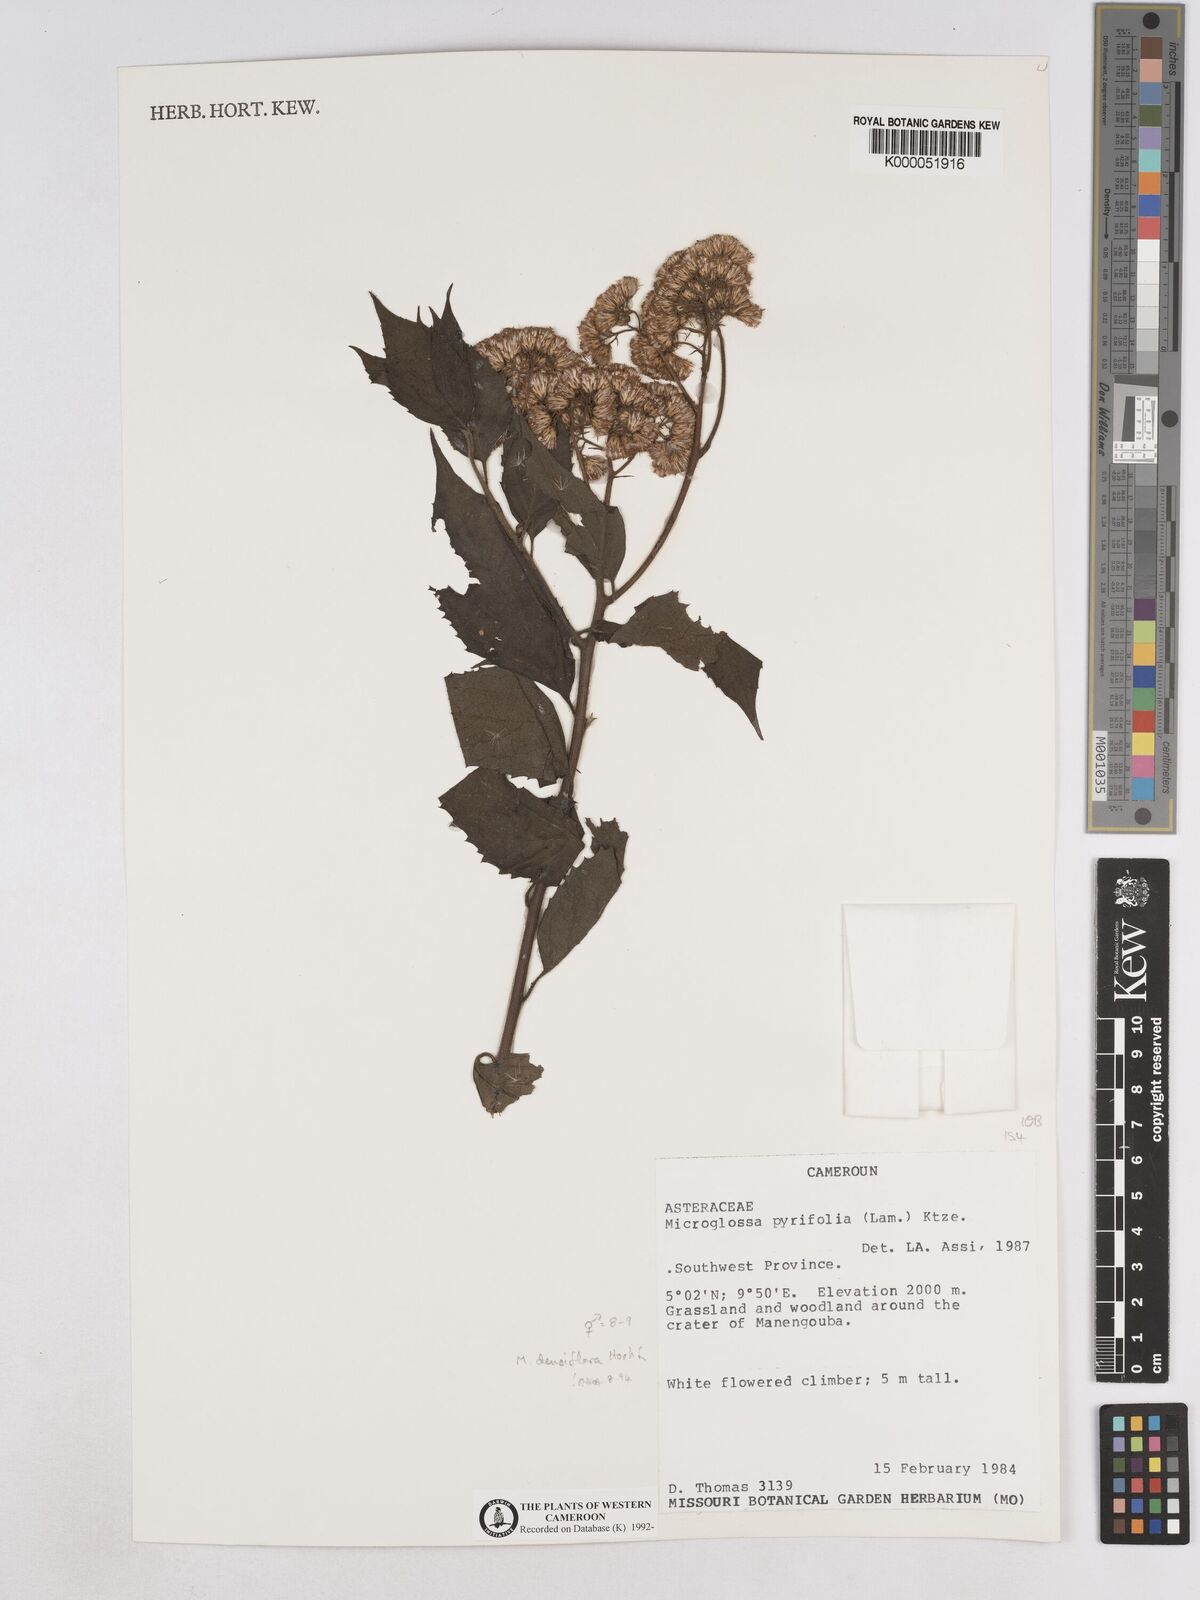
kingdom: Plantae
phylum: Tracheophyta
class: Magnoliopsida
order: Asterales
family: Asteraceae
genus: Microglossa
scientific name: Microglossa pyrifolia
